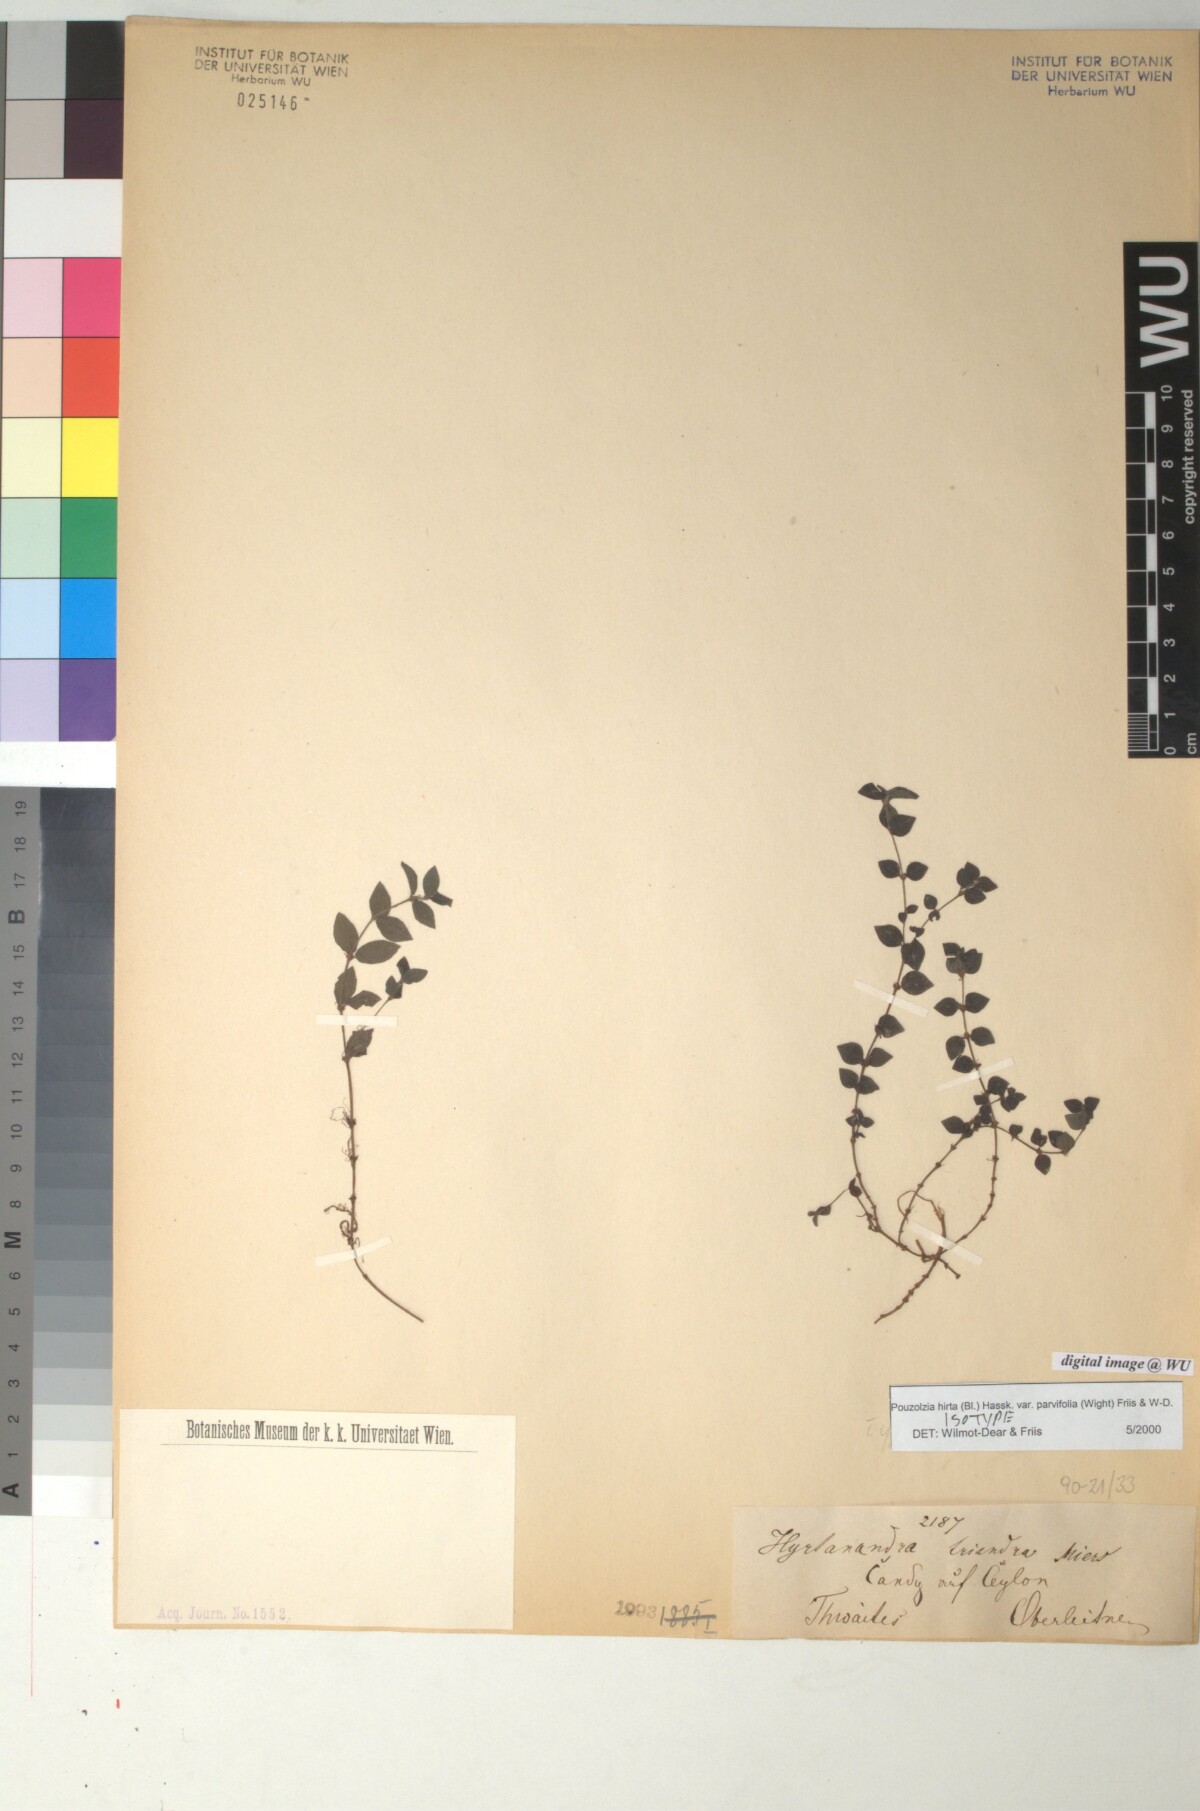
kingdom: Plantae
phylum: Tracheophyta
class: Magnoliopsida
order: Rosales
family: Urticaceae
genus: Gonostegia
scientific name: Gonostegia triandra
